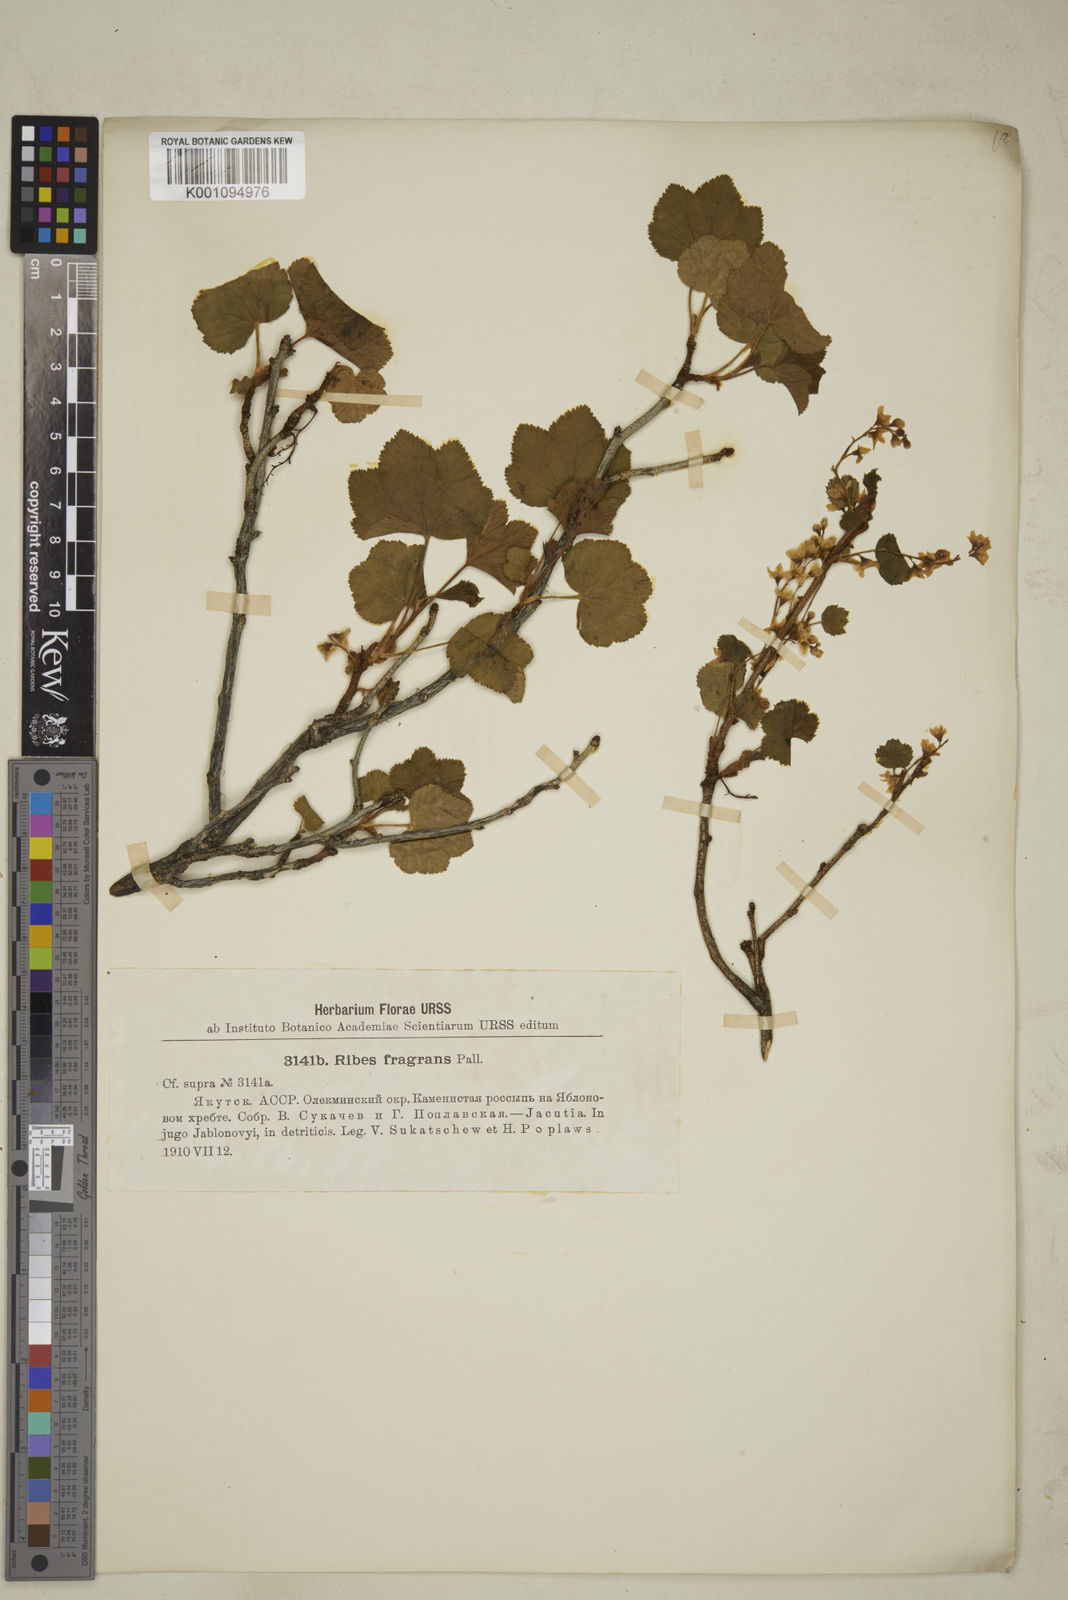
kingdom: Plantae
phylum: Tracheophyta
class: Magnoliopsida
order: Saxifragales
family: Grossulariaceae
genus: Ribes
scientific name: Ribes
